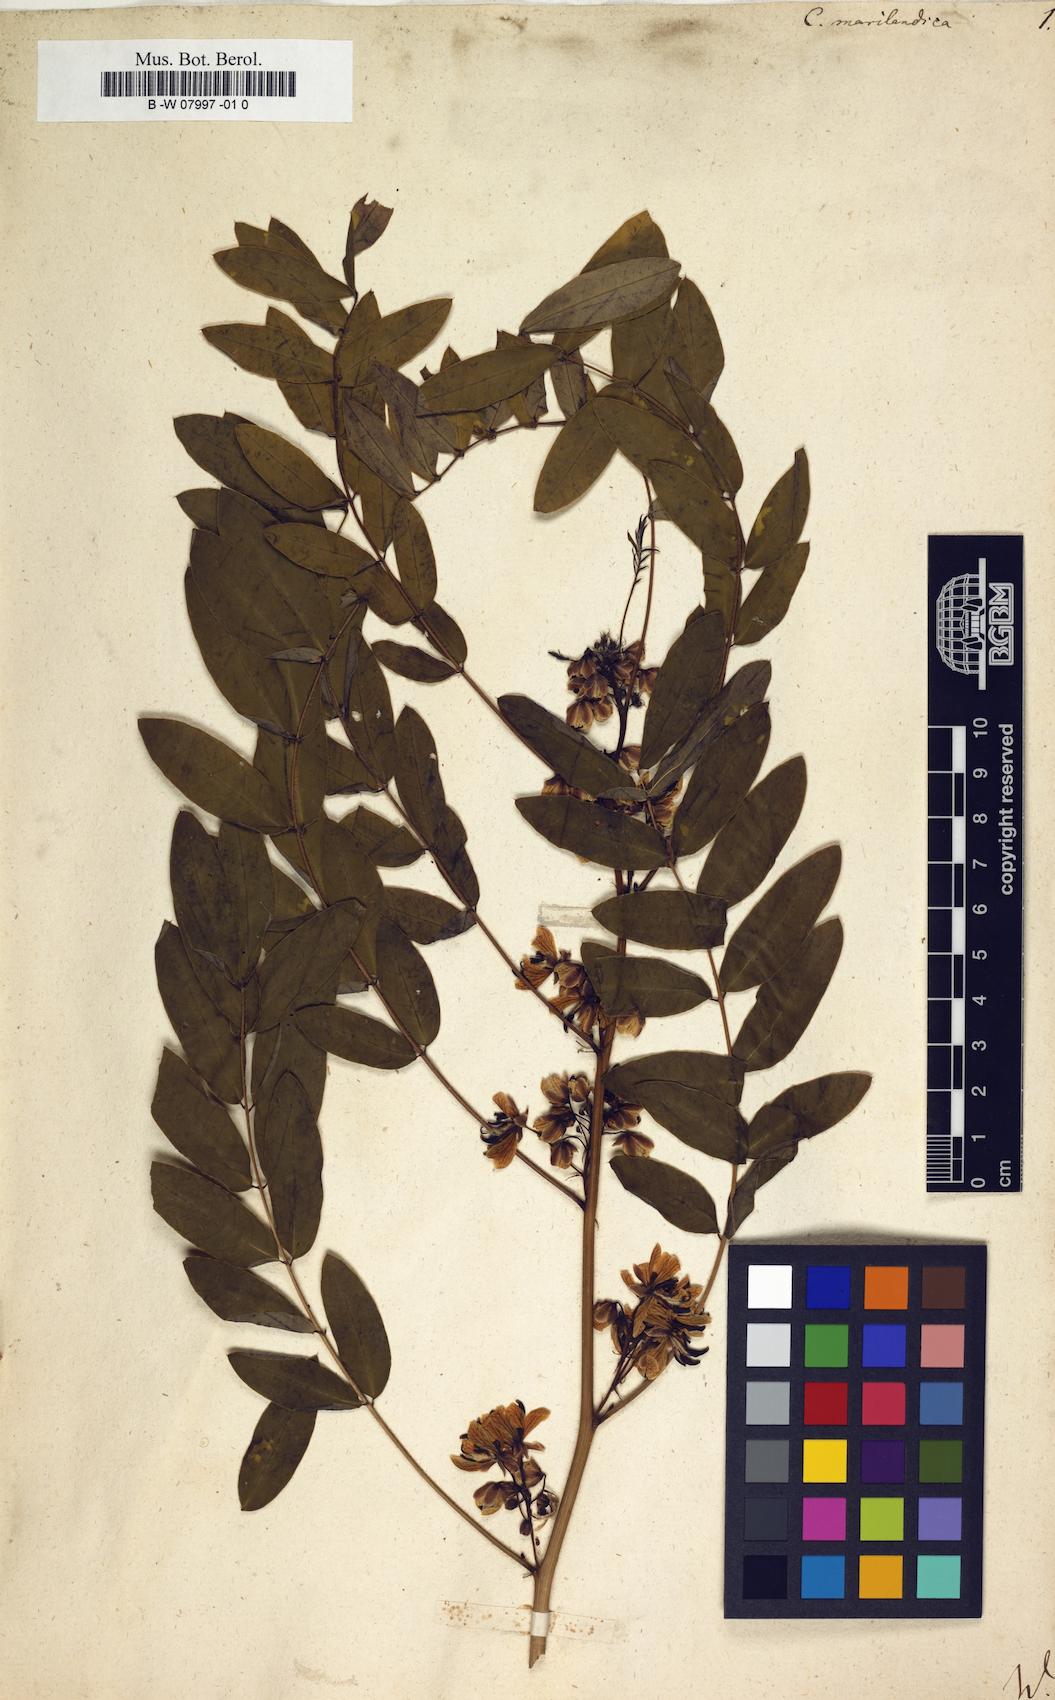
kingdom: Plantae
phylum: Tracheophyta
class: Magnoliopsida
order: Fabales
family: Fabaceae
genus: Senna
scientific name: Senna marilandica
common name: American senna
